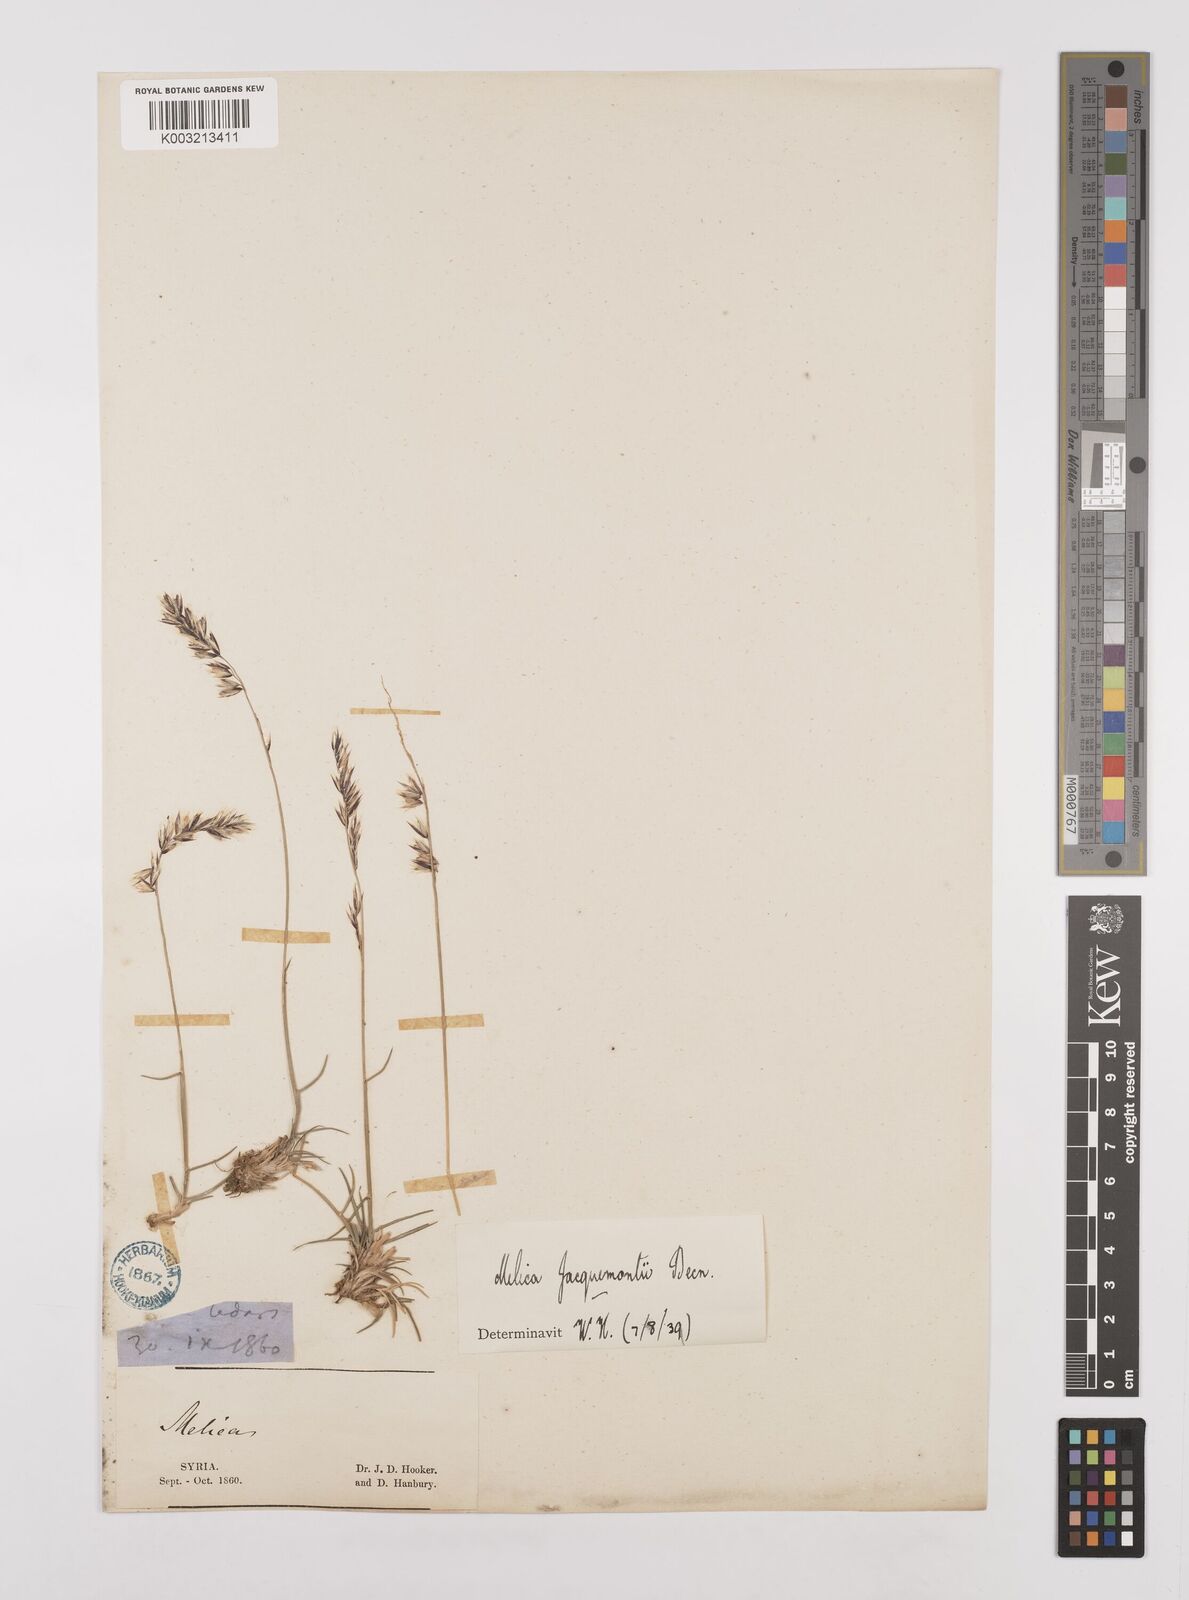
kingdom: Plantae
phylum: Tracheophyta
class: Liliopsida
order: Poales
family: Poaceae
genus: Melica
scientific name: Melica persica
